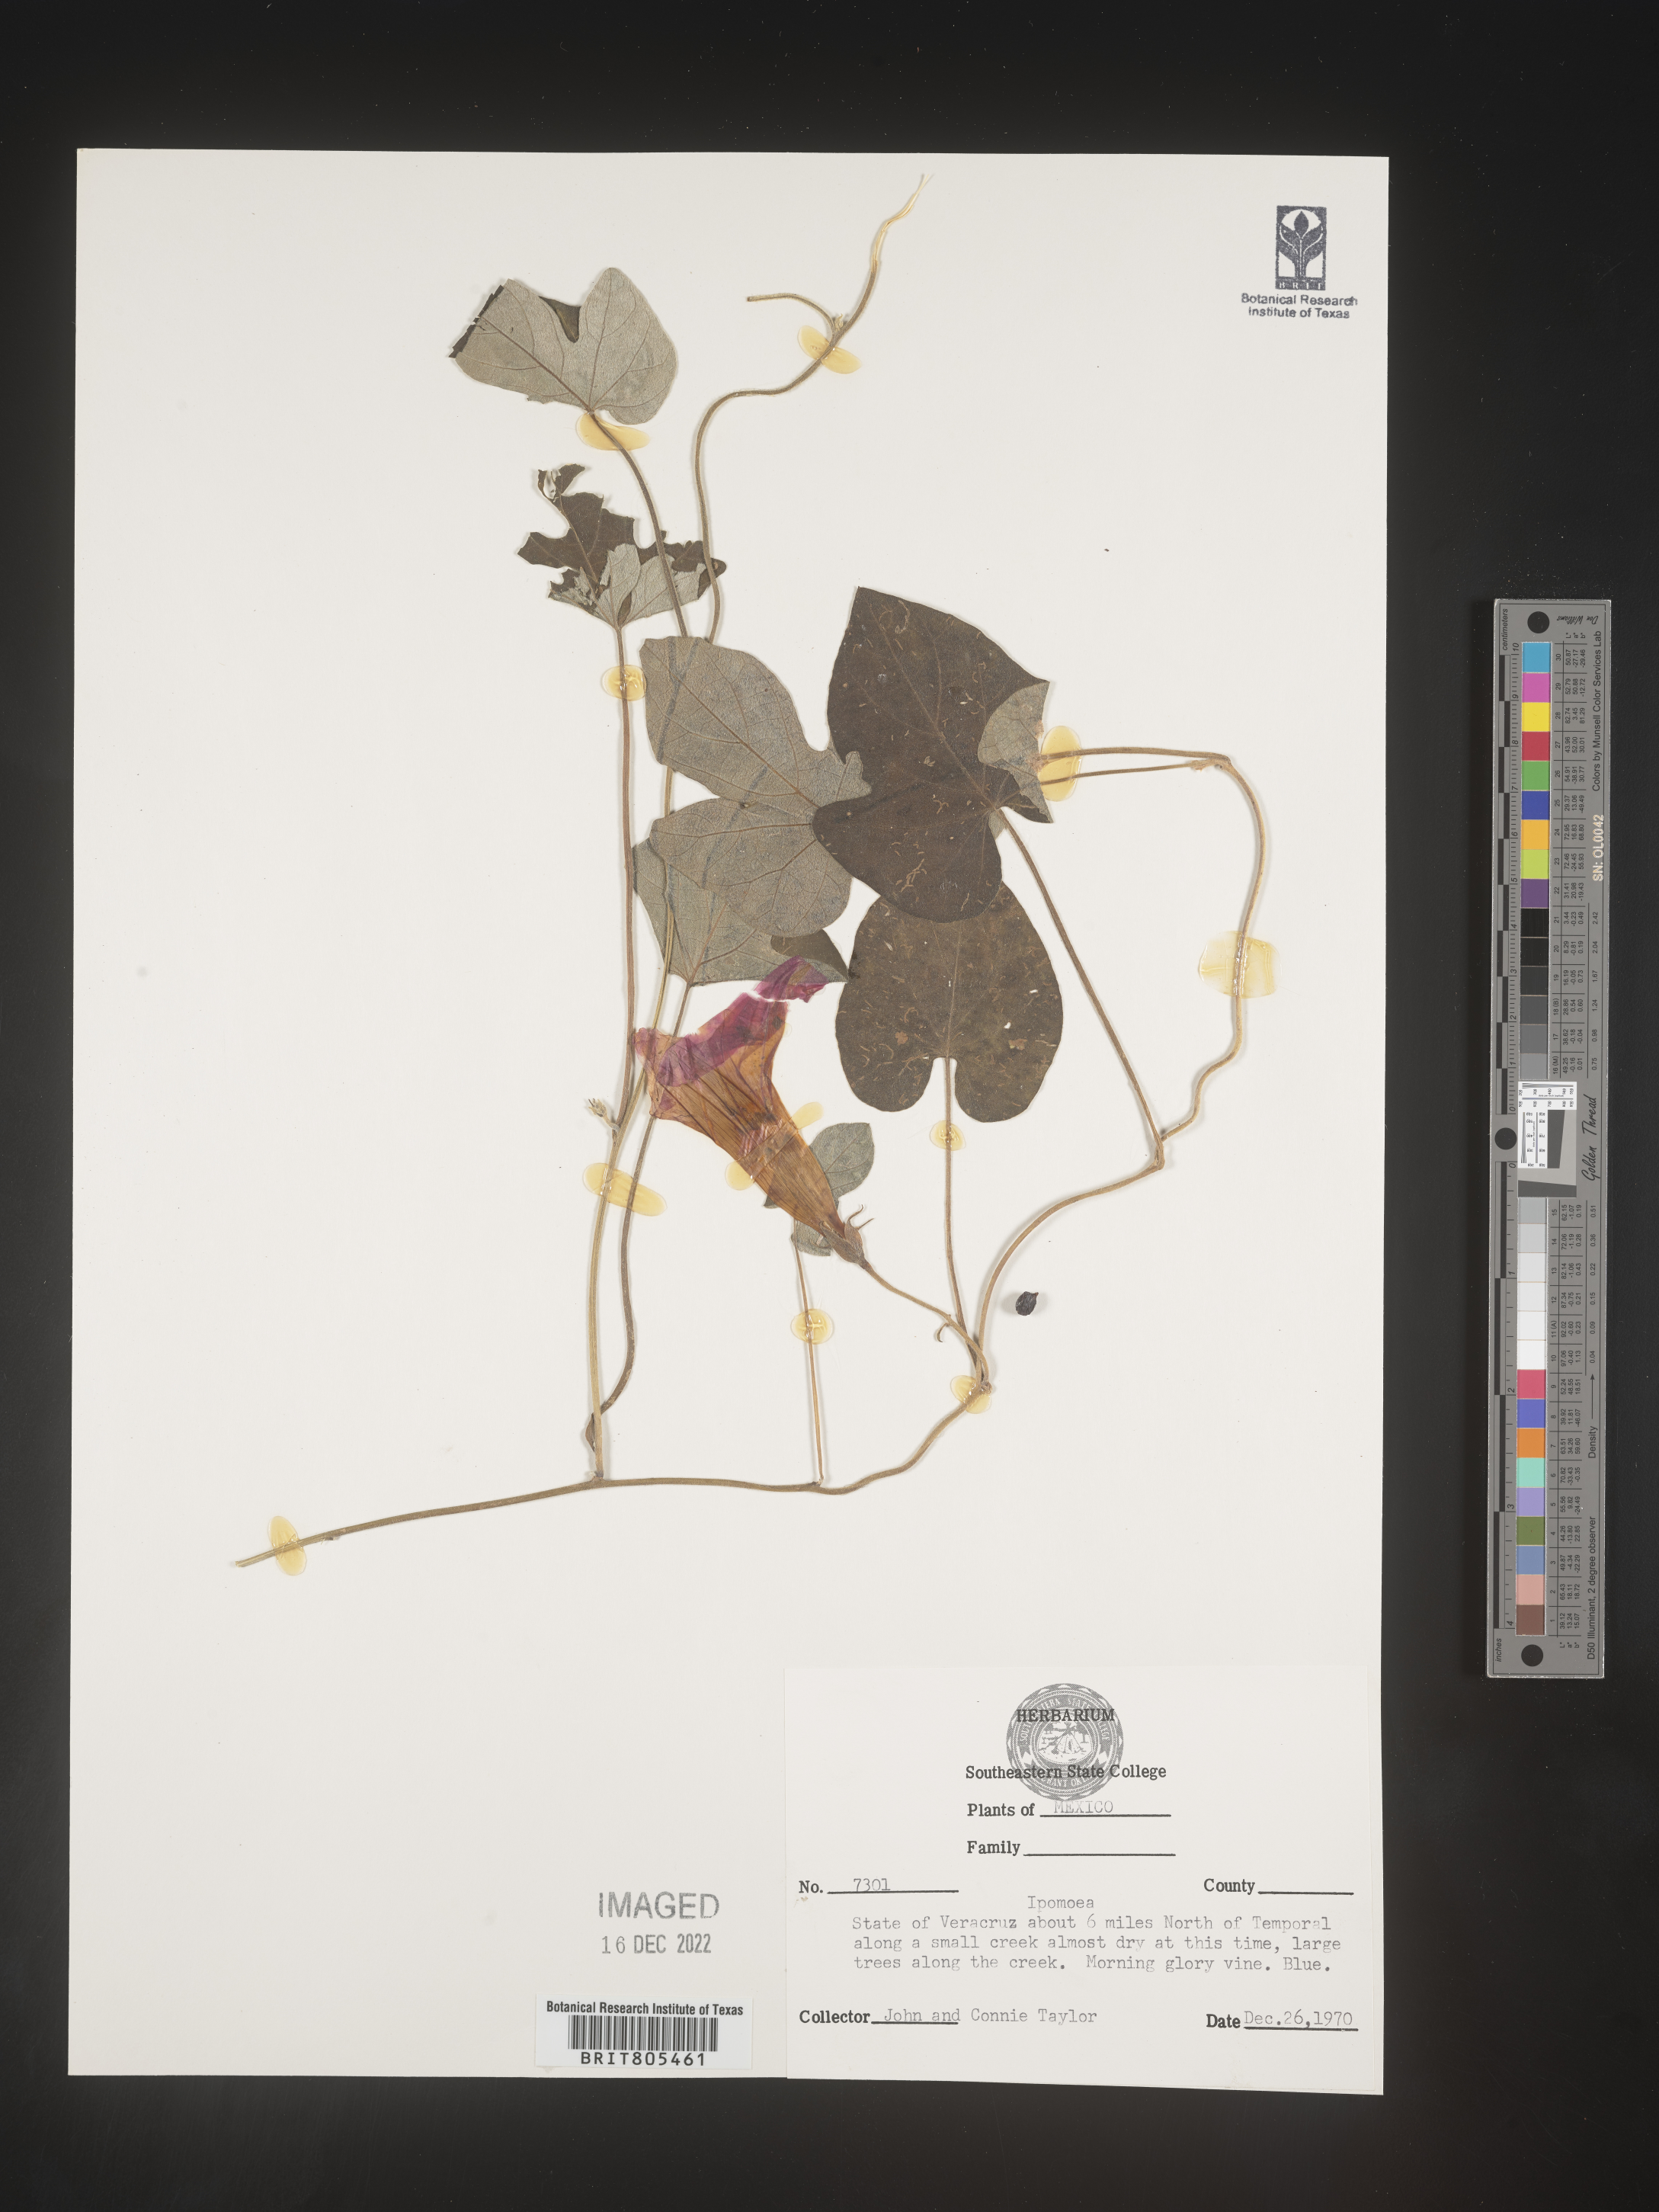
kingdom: Plantae
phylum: Tracheophyta
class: Magnoliopsida
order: Solanales
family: Convolvulaceae
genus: Ipomoea
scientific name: Ipomoea
